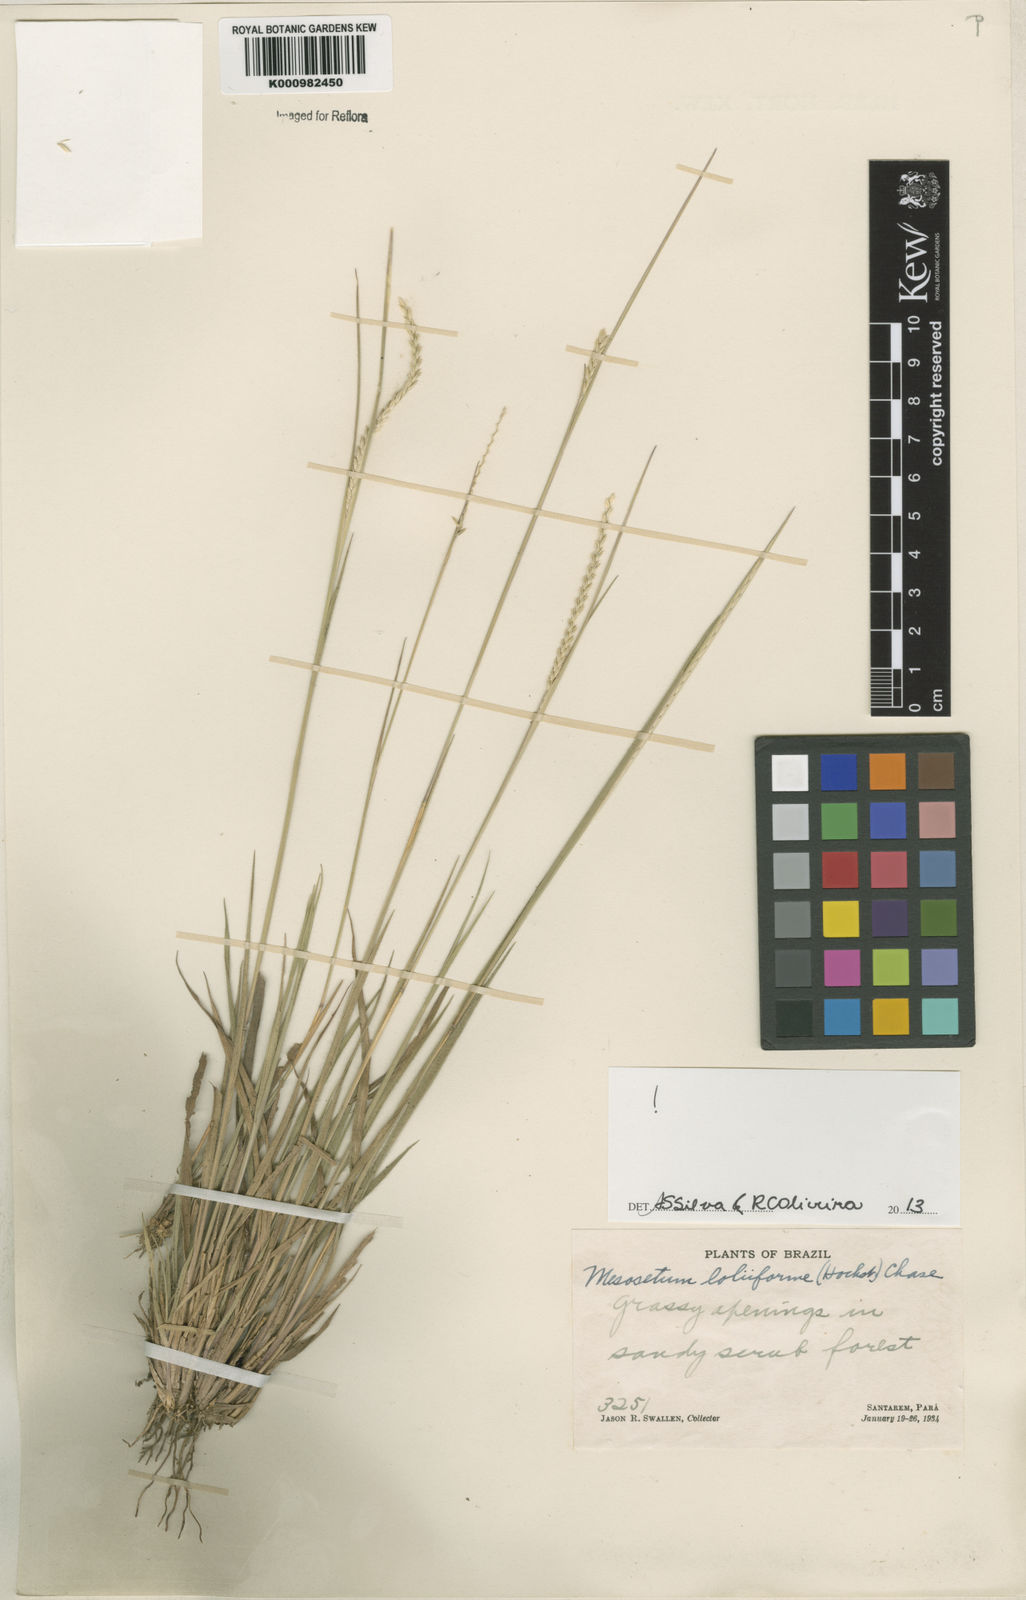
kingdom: Plantae
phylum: Tracheophyta
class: Liliopsida
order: Poales
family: Poaceae
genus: Mesosetum
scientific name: Mesosetum
